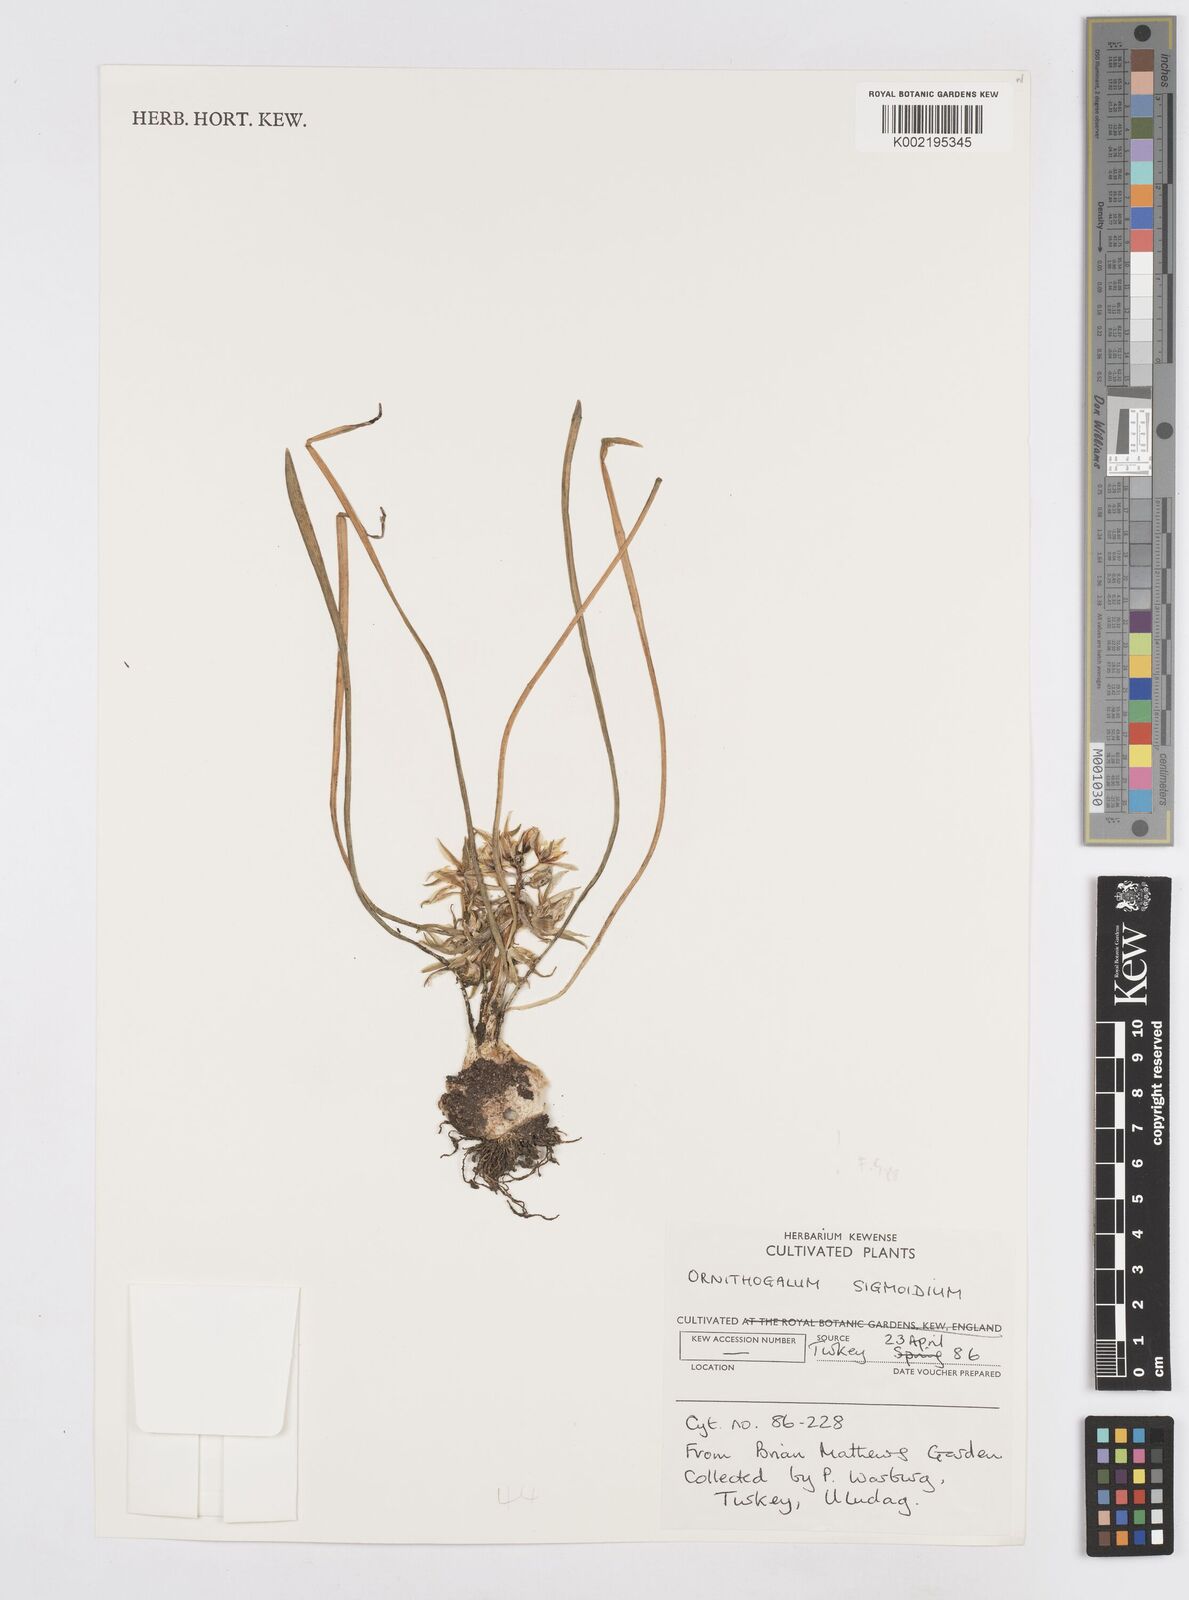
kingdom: Plantae
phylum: Tracheophyta
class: Liliopsida
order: Asparagales
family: Asparagaceae
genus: Ornithogalum
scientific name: Ornithogalum sigmoideum
